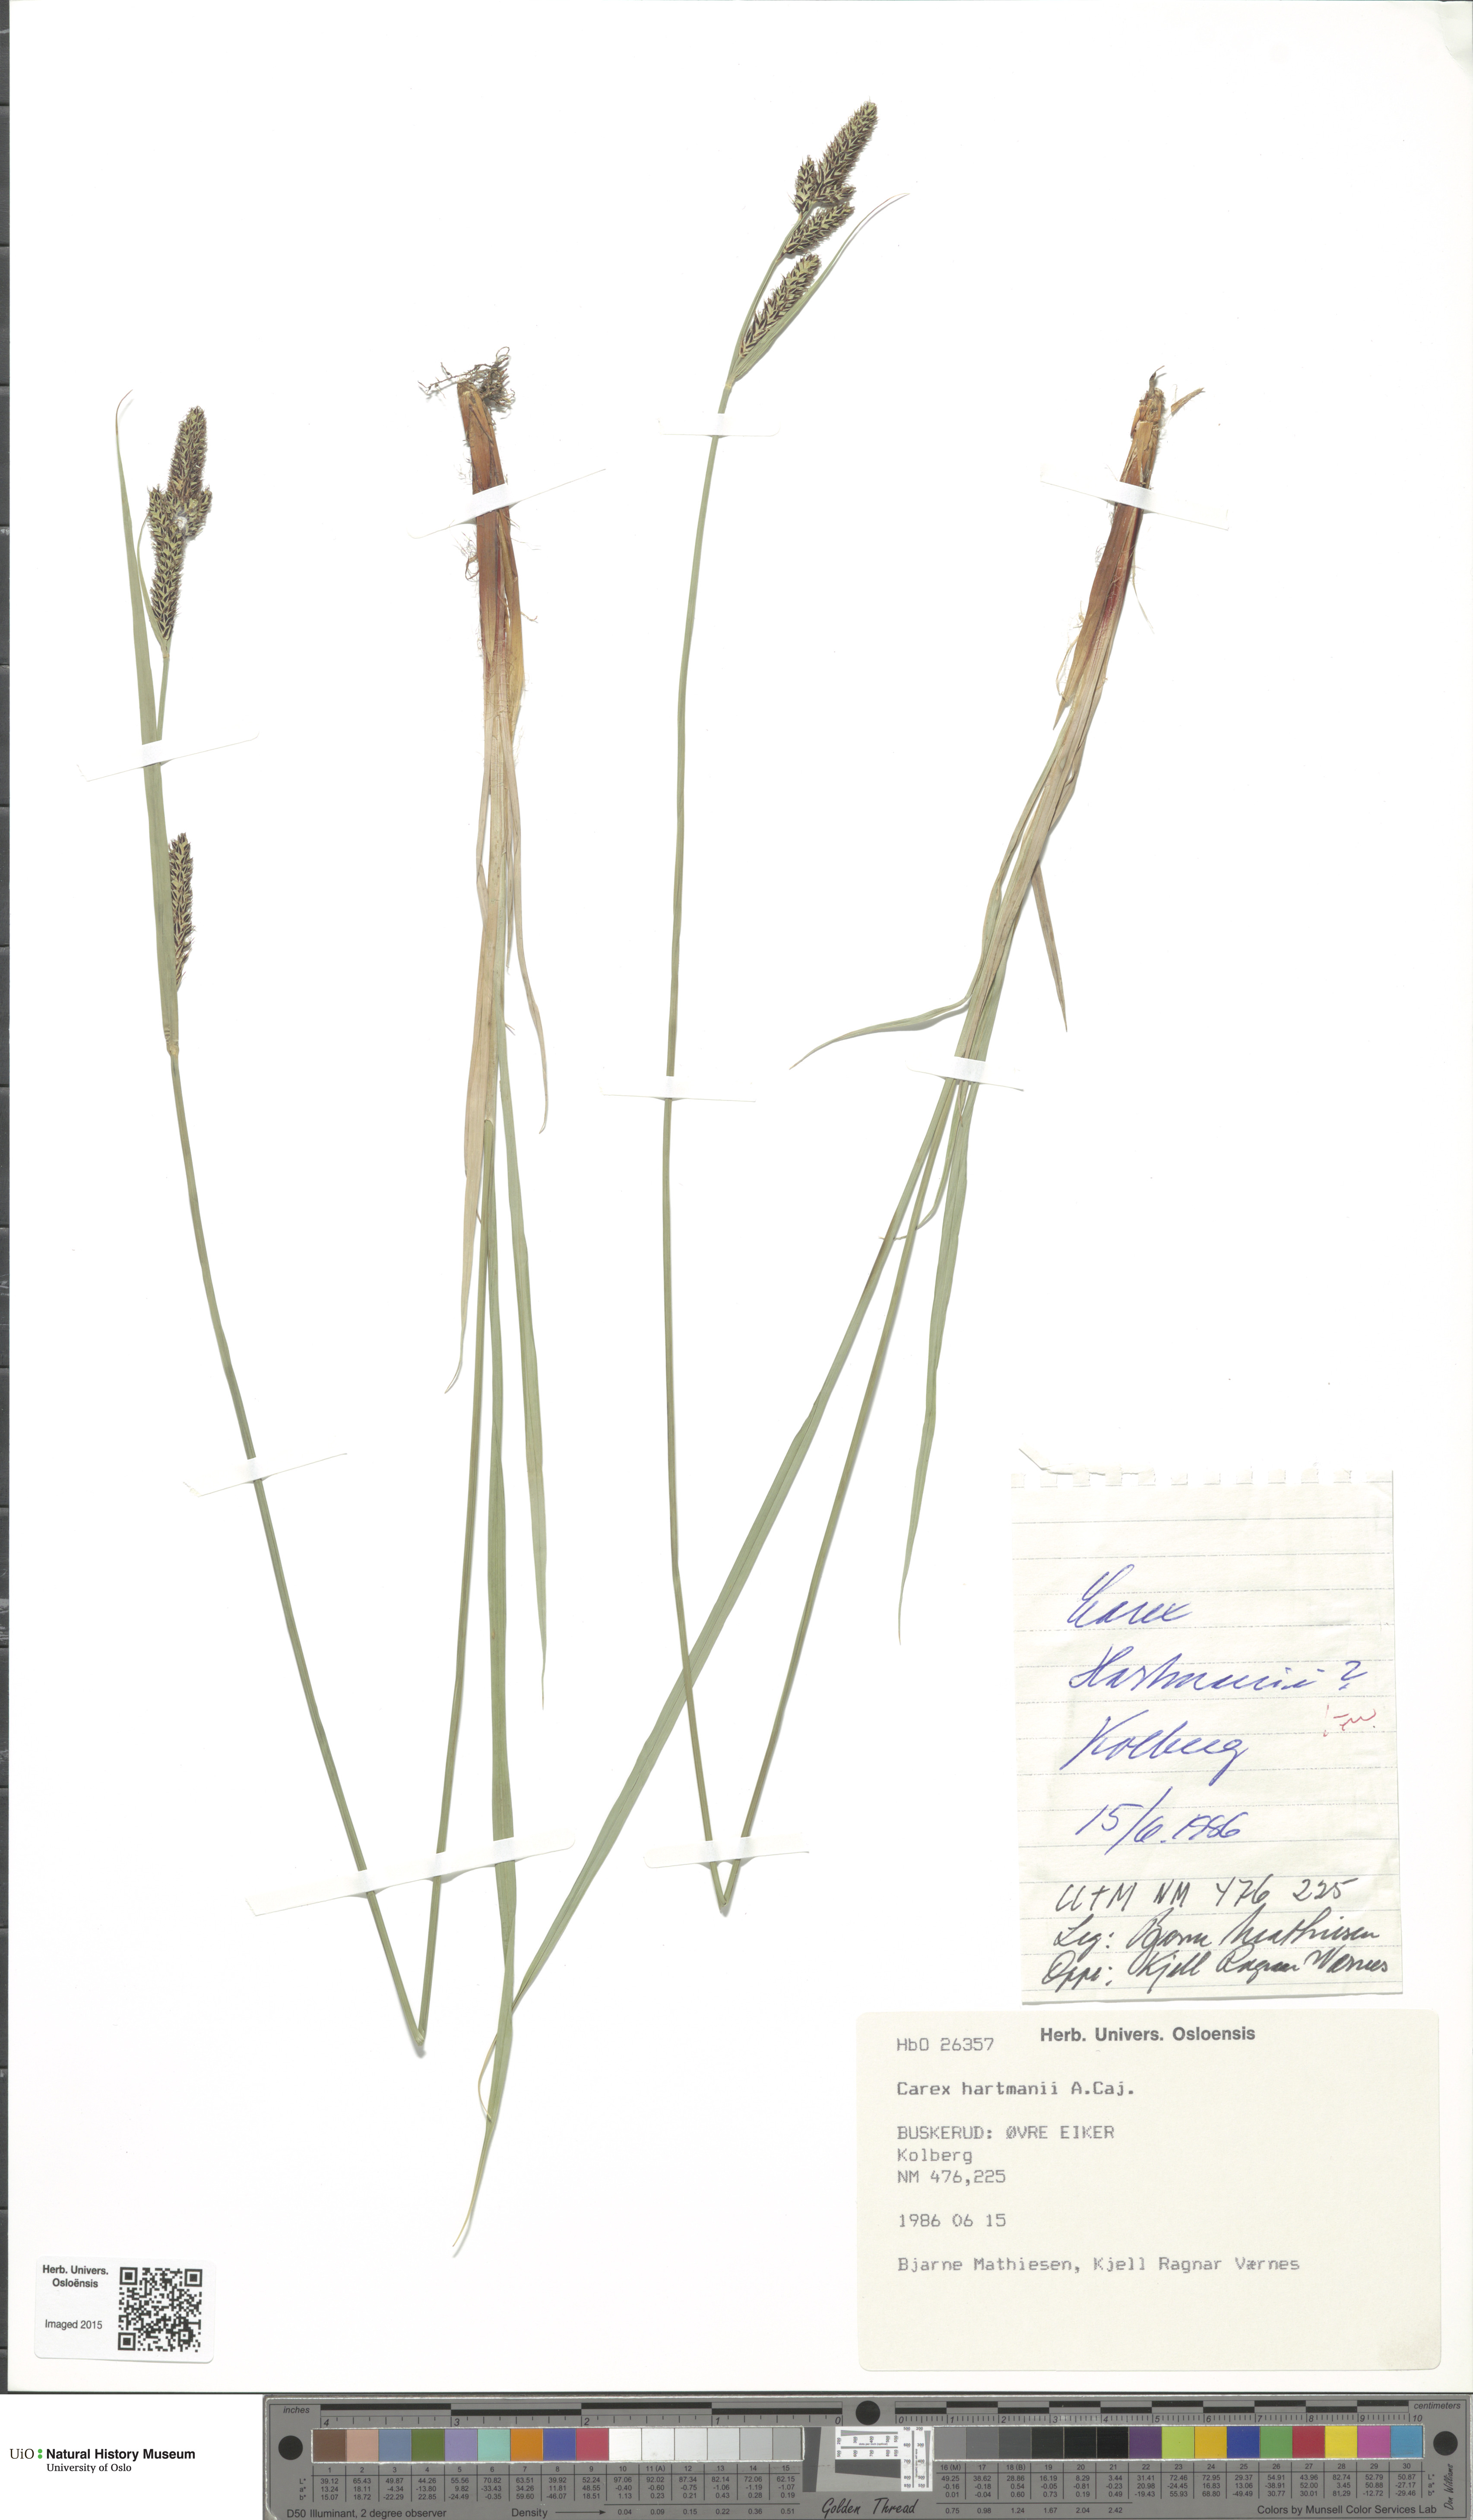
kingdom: Plantae
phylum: Tracheophyta
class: Liliopsida
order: Poales
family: Cyperaceae
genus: Carex
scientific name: Carex hartmaniorum
